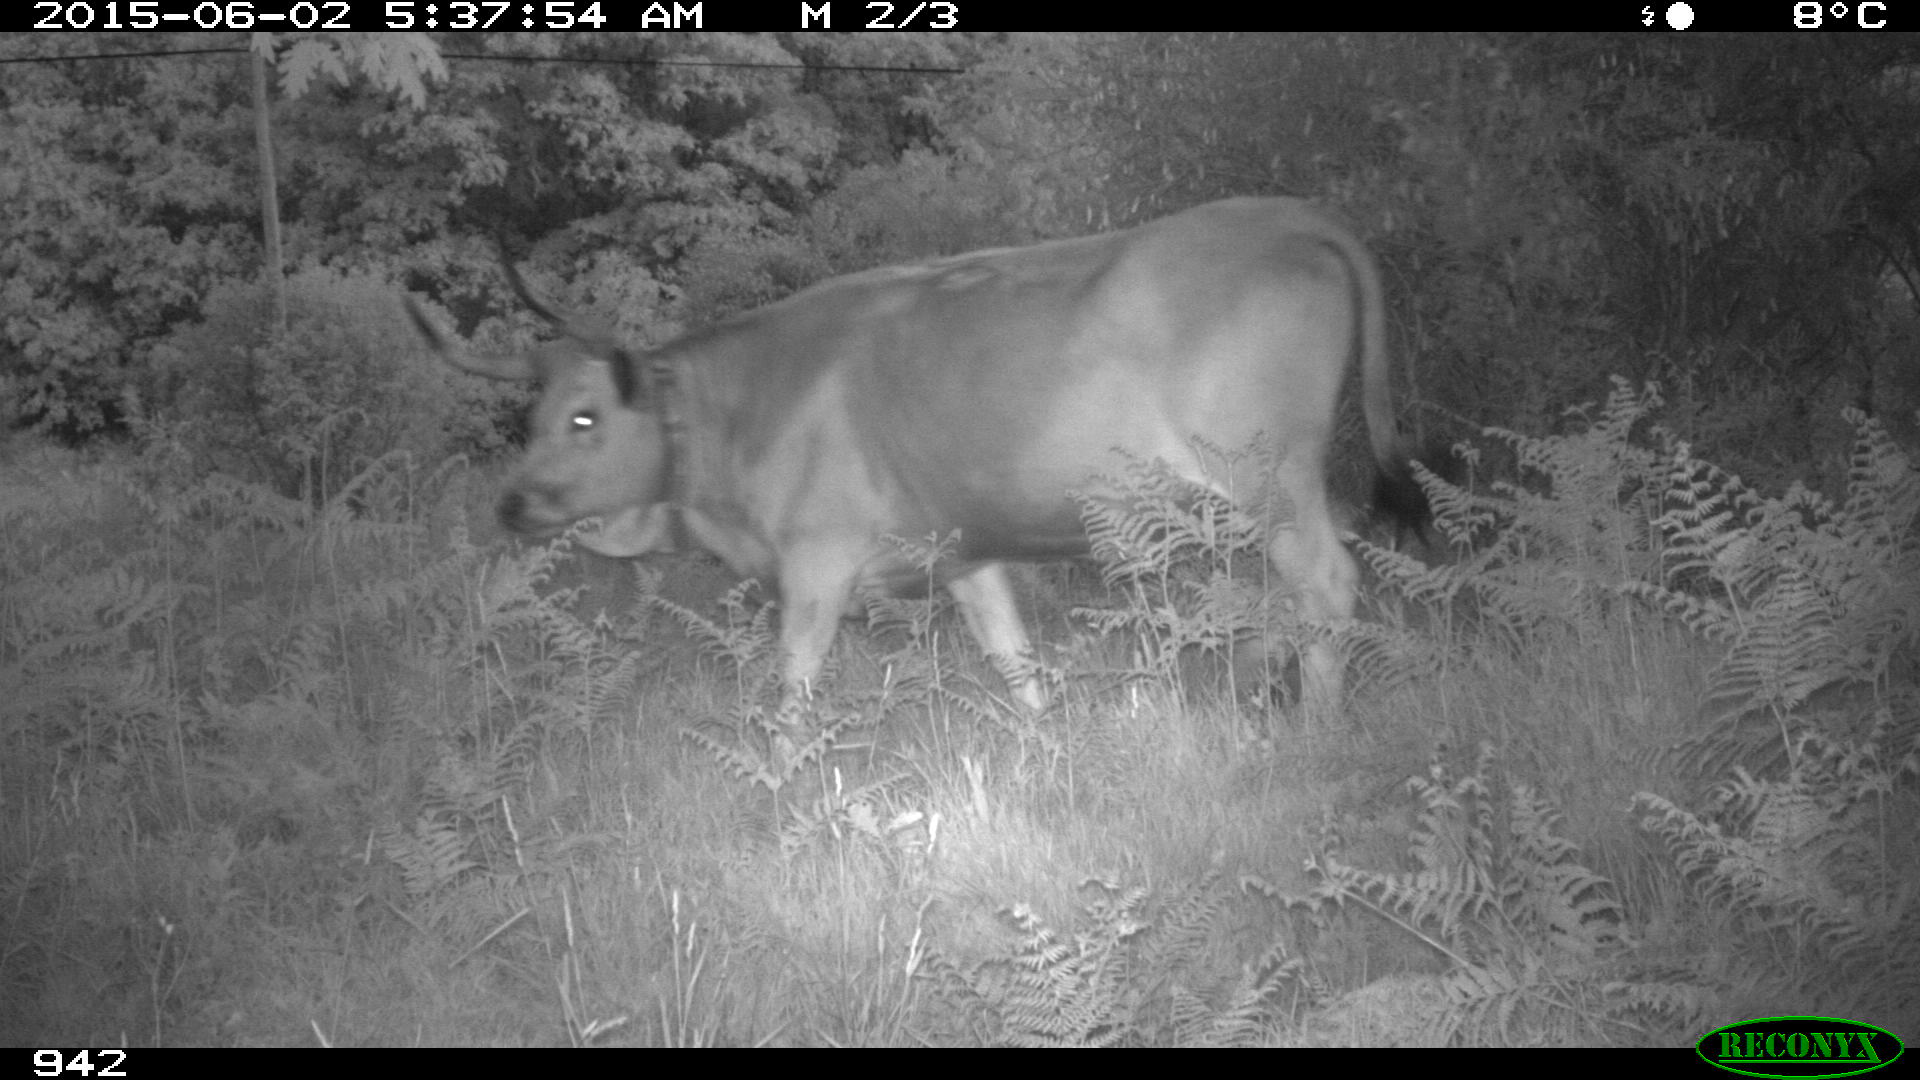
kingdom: Animalia
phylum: Chordata
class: Mammalia
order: Artiodactyla
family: Bovidae
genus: Bos
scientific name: Bos taurus
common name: Domesticated cattle
